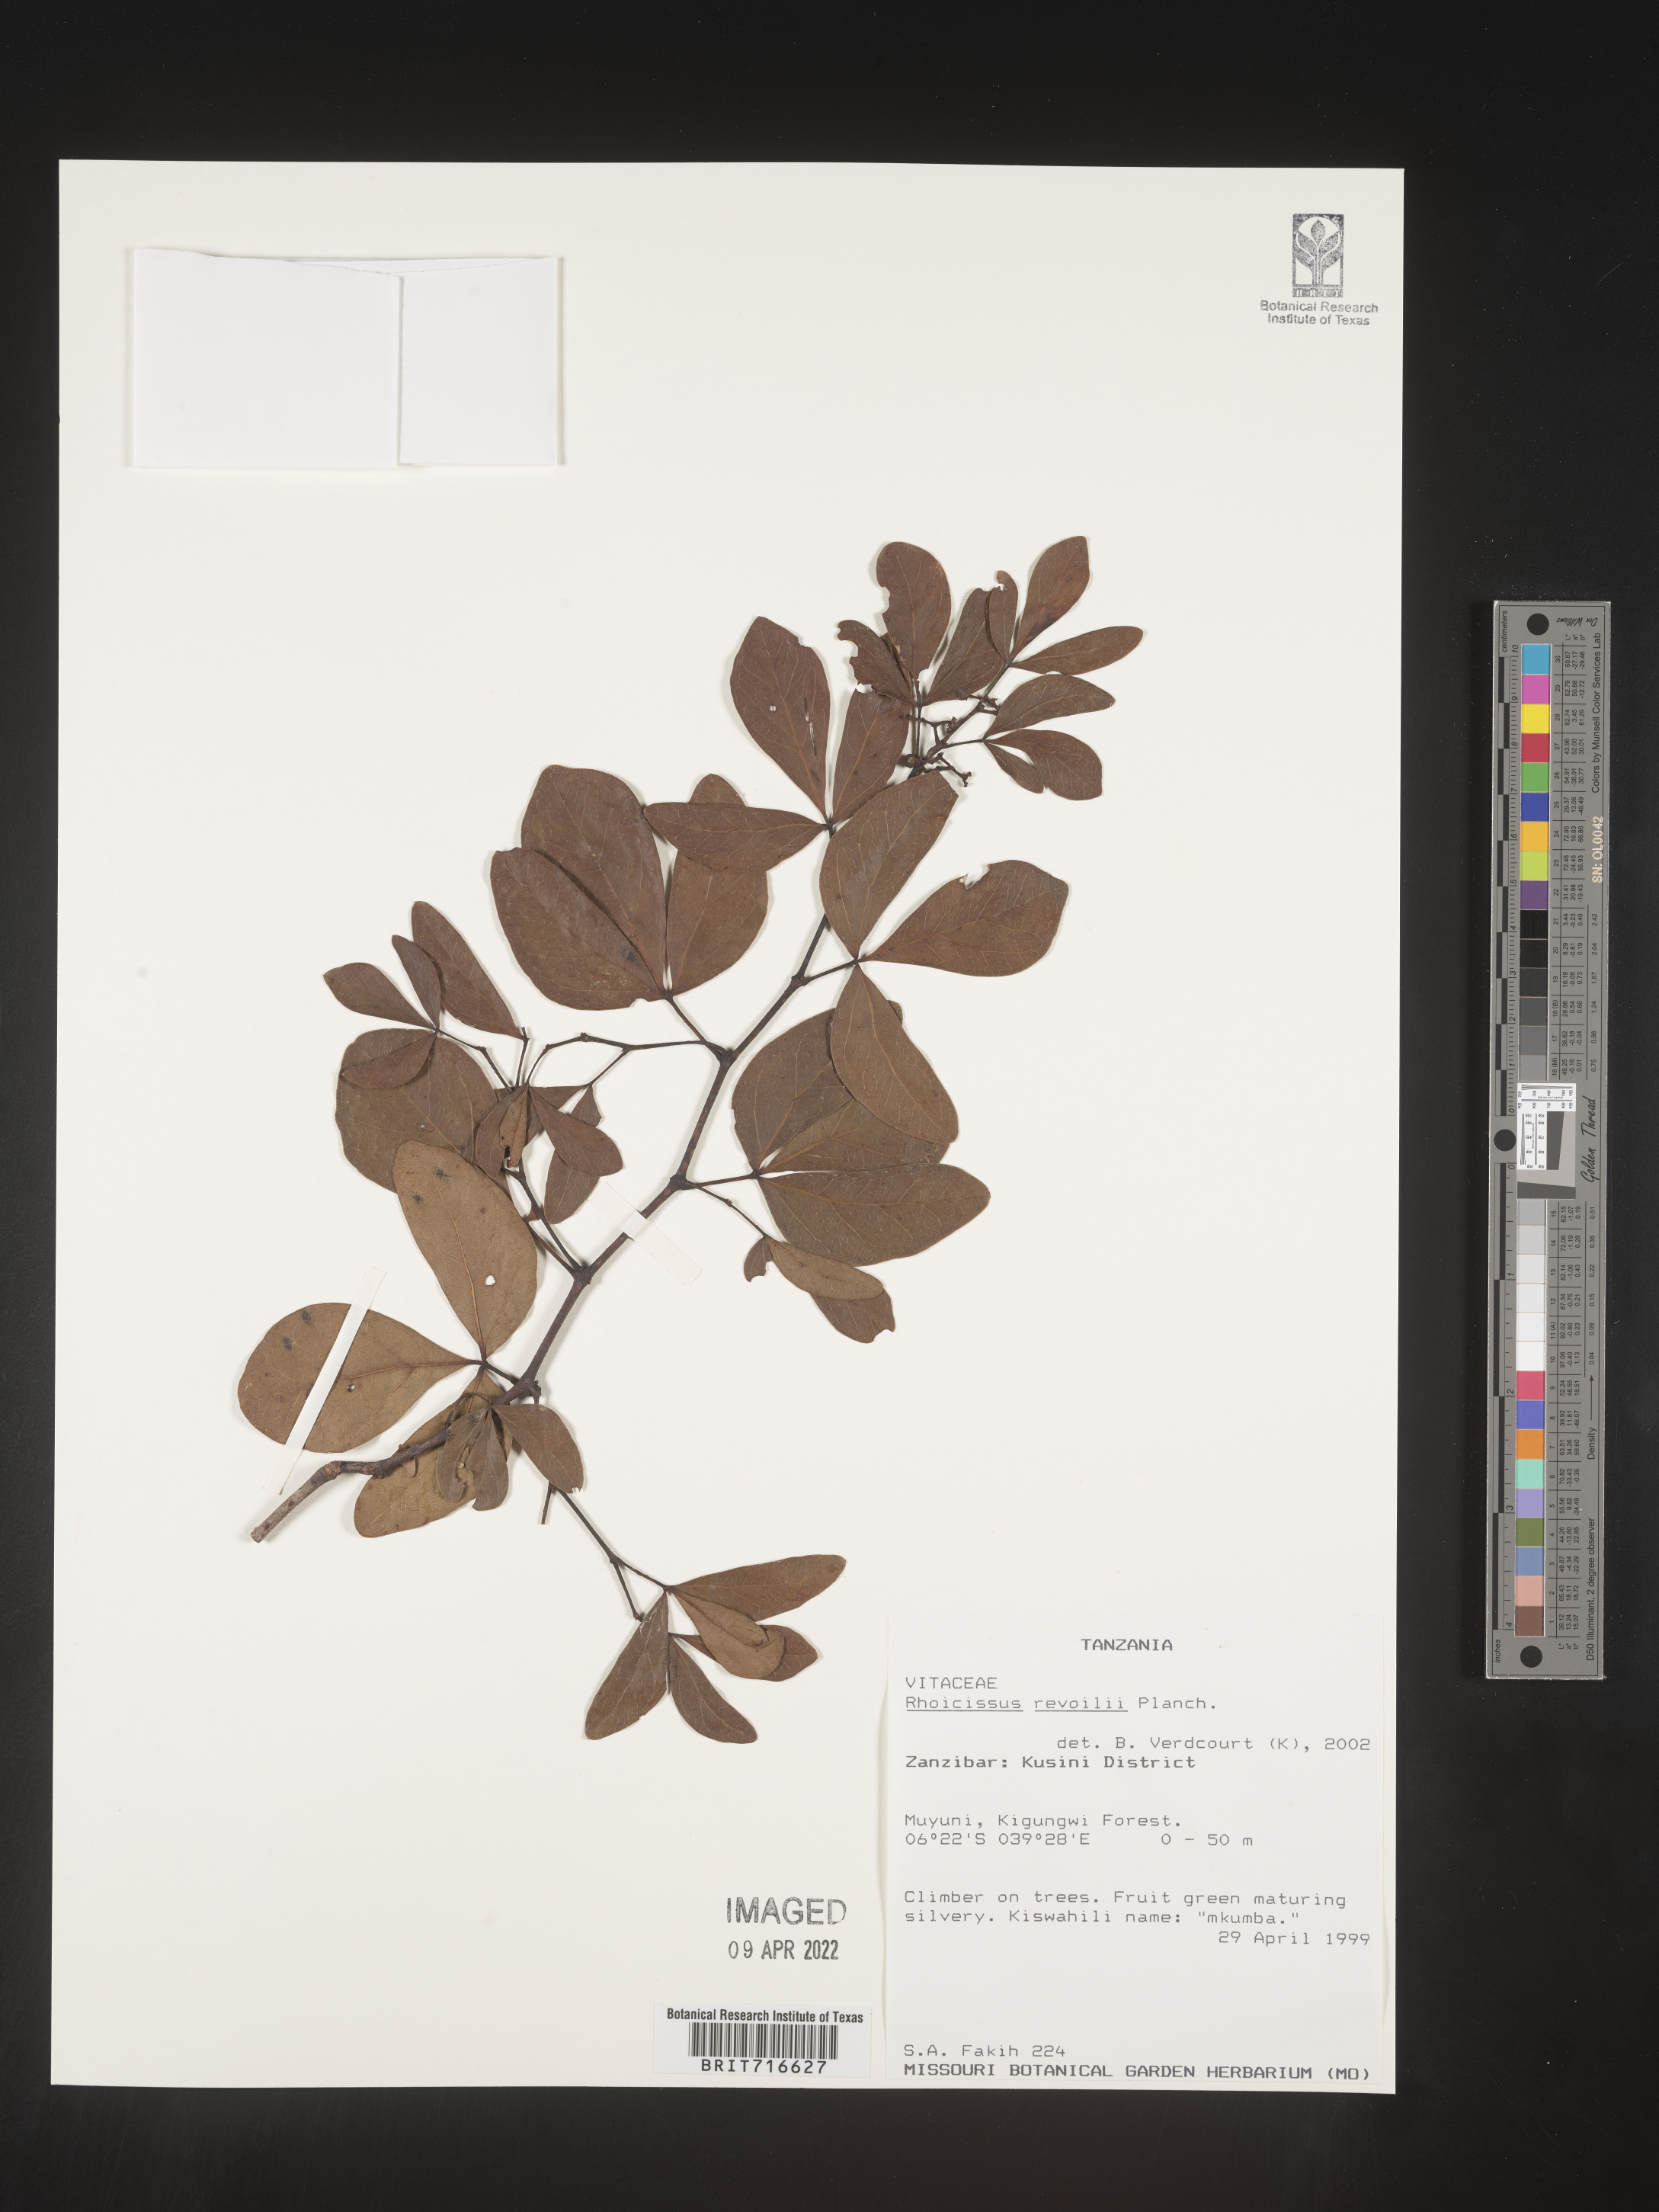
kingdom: Plantae
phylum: Tracheophyta
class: Magnoliopsida
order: Vitales
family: Vitaceae
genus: Rhoicissus
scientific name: Rhoicissus
